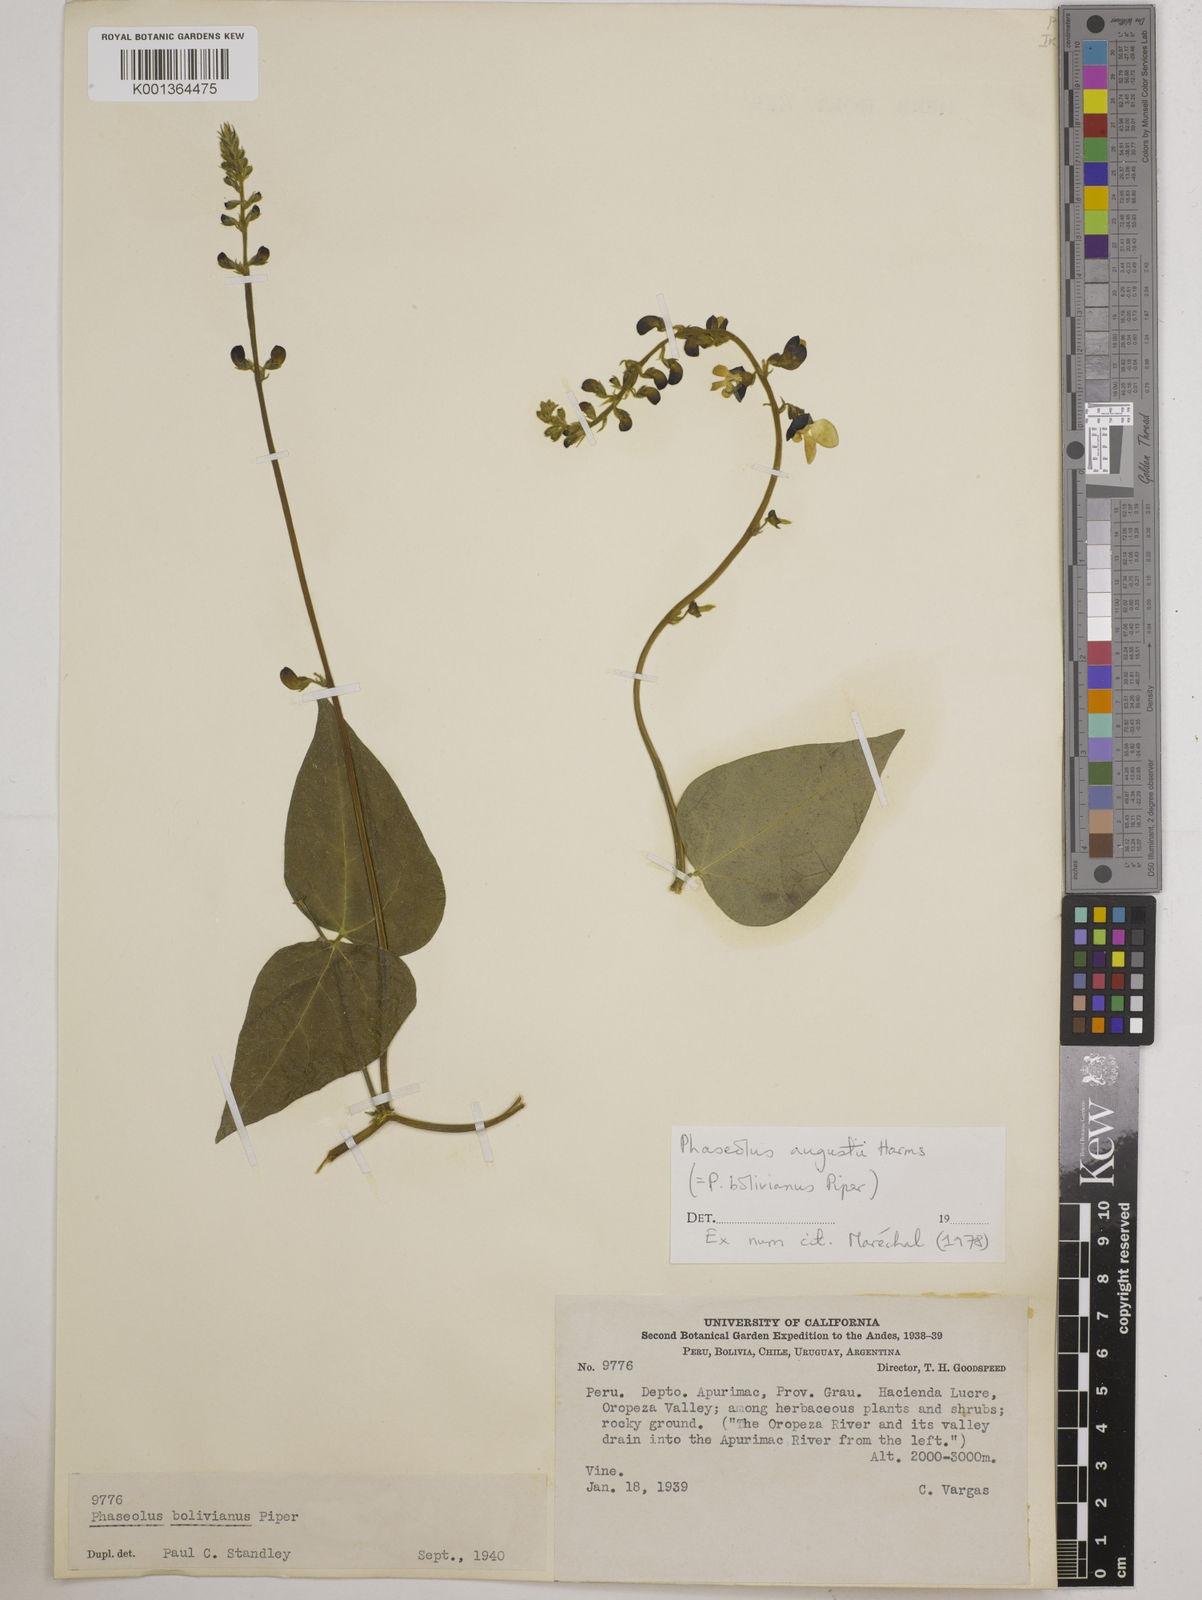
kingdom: Plantae
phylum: Tracheophyta
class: Magnoliopsida
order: Fabales
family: Fabaceae
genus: Phaseolus
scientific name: Phaseolus augusti
